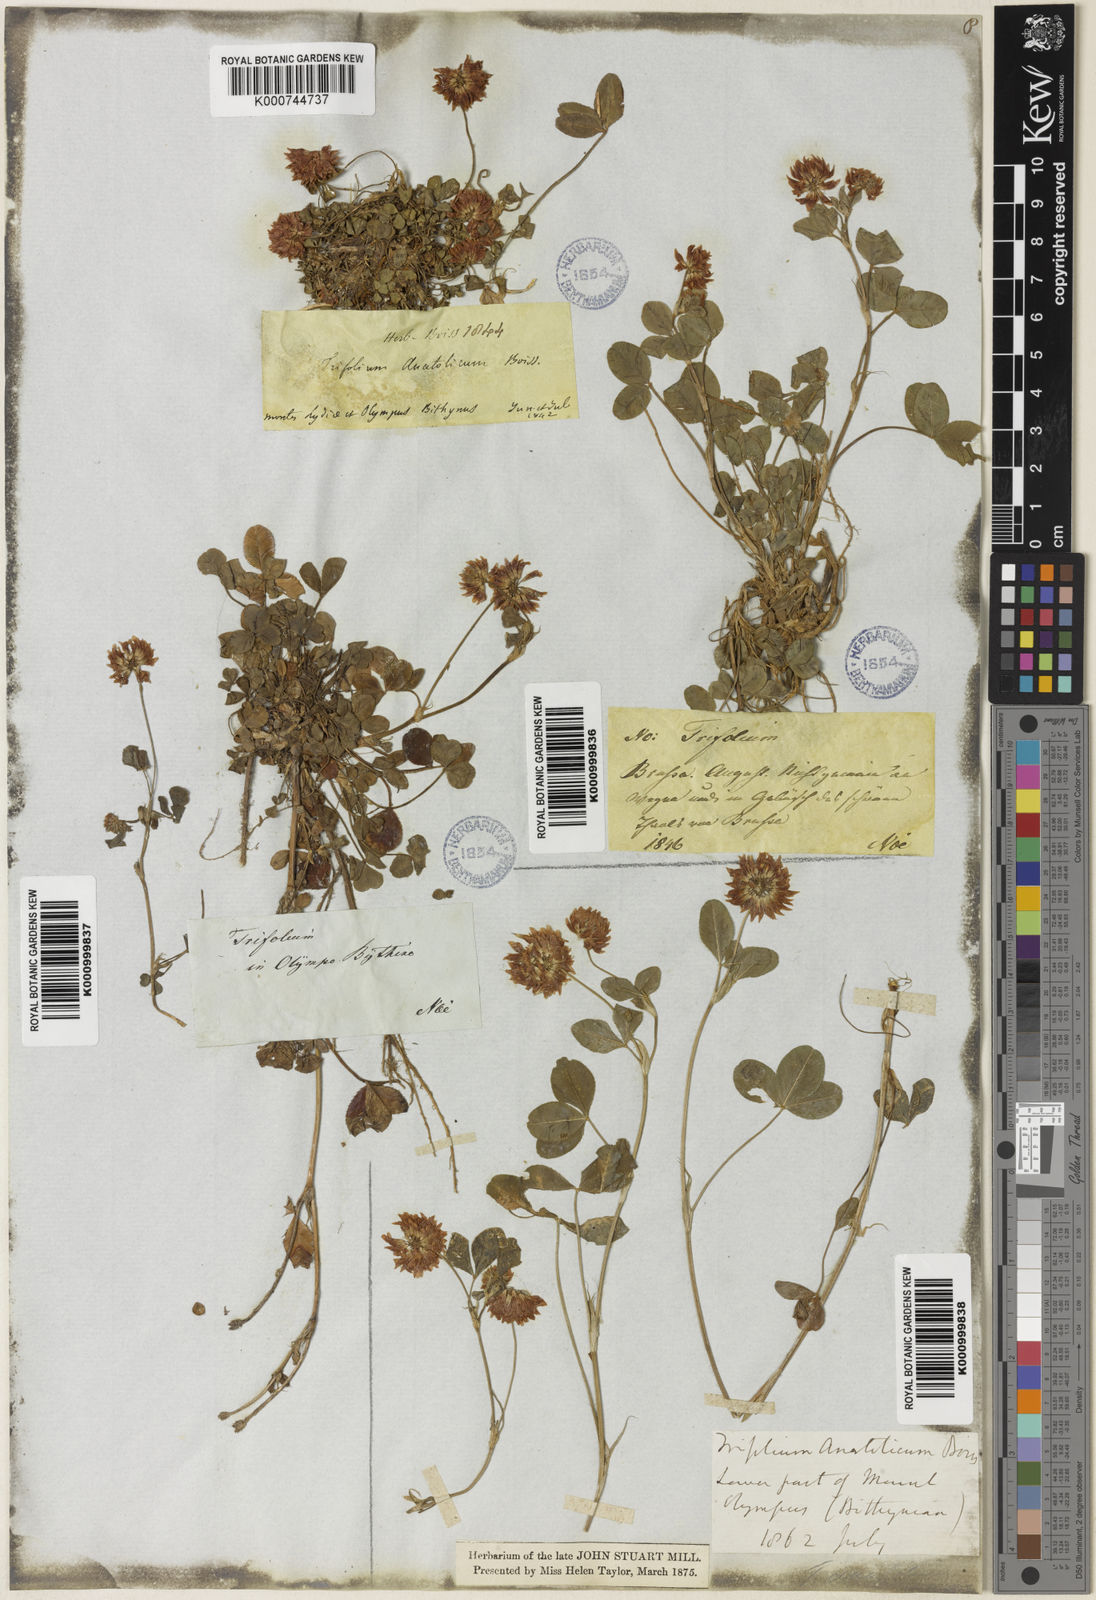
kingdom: Plantae
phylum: Tracheophyta
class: Magnoliopsida
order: Fabales
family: Fabaceae
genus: Trifolium
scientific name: Trifolium hybridum
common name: Alsike clover
